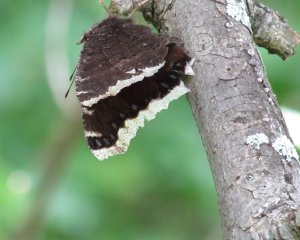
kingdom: Animalia
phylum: Arthropoda
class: Insecta
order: Lepidoptera
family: Nymphalidae
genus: Nymphalis
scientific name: Nymphalis antiopa
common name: Mourning Cloak
